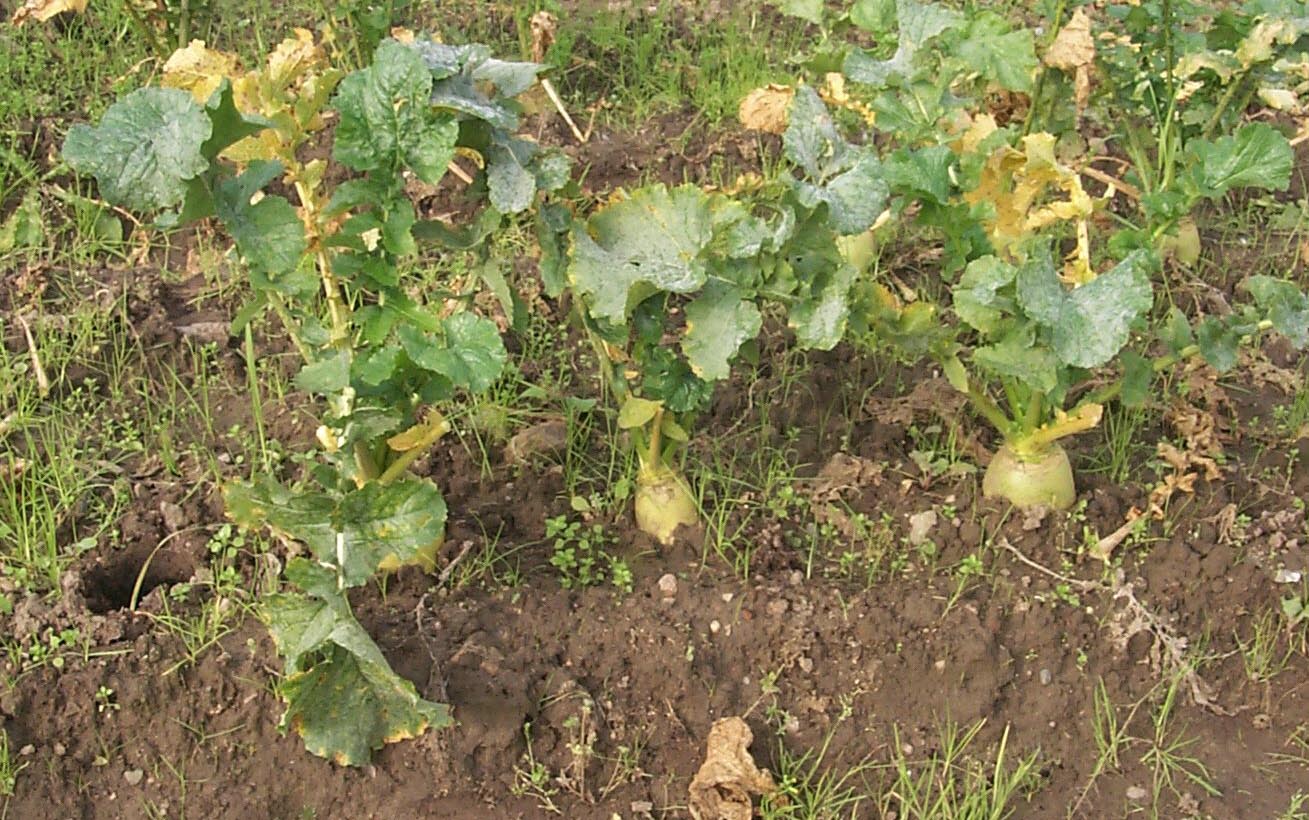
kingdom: Plantae
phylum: Tracheophyta
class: Magnoliopsida
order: Brassicales
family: Brassicaceae
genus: Brassica
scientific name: Brassica rapa
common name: Field mustard
